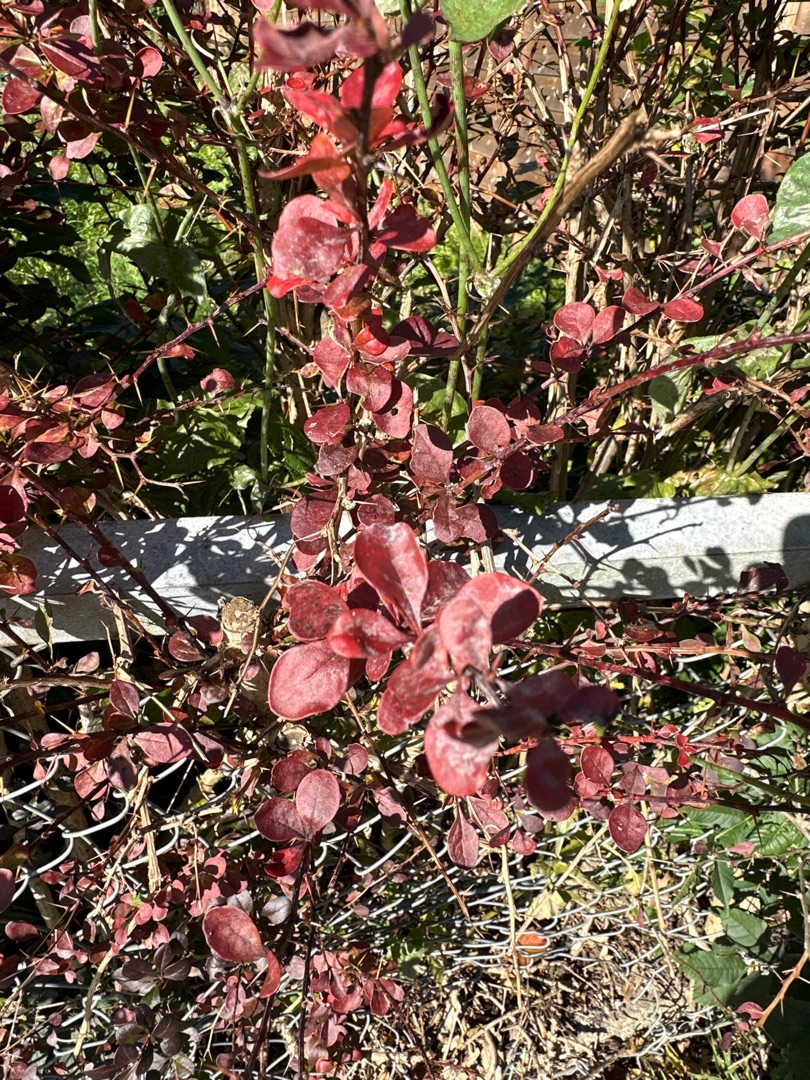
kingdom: Plantae
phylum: Tracheophyta
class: Magnoliopsida
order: Ranunculales
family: Berberidaceae
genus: Berberis
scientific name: Berberis thunbergii
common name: Hæk-berberis
